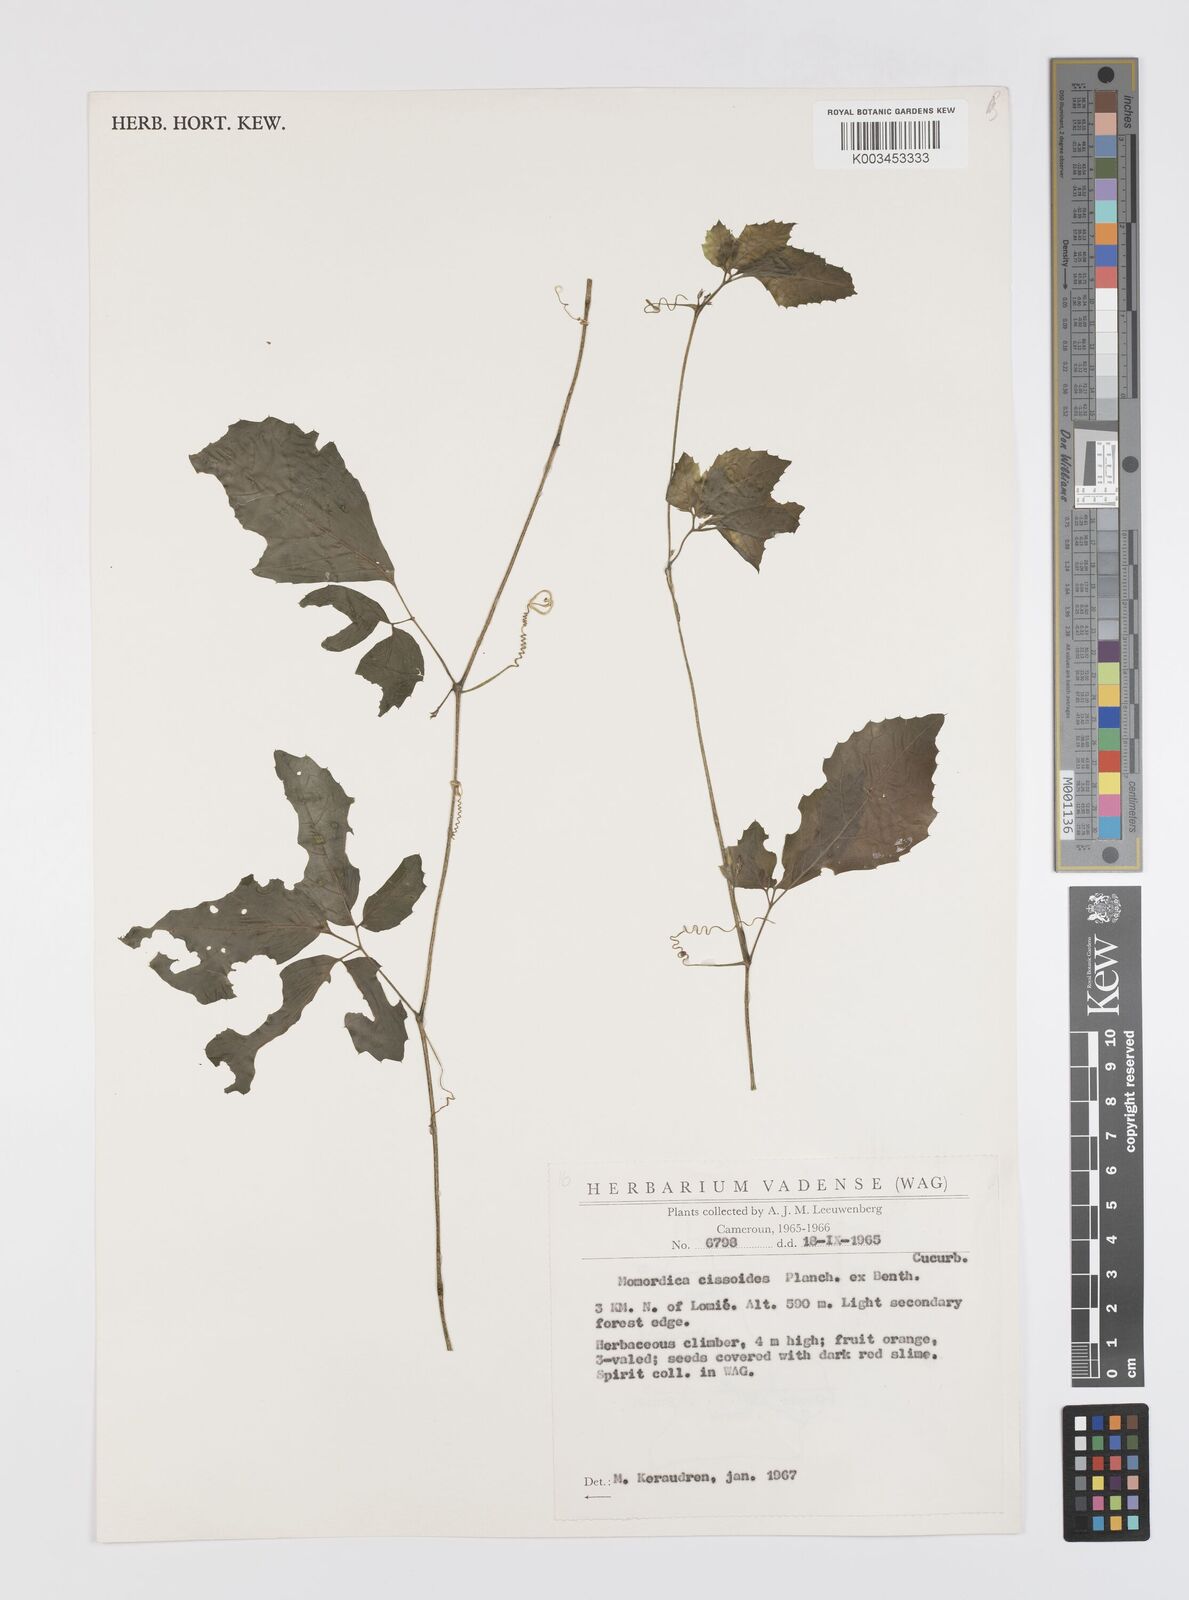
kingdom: Plantae
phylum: Tracheophyta
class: Magnoliopsida
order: Cucurbitales
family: Cucurbitaceae
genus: Momordica
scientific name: Momordica cissoides
